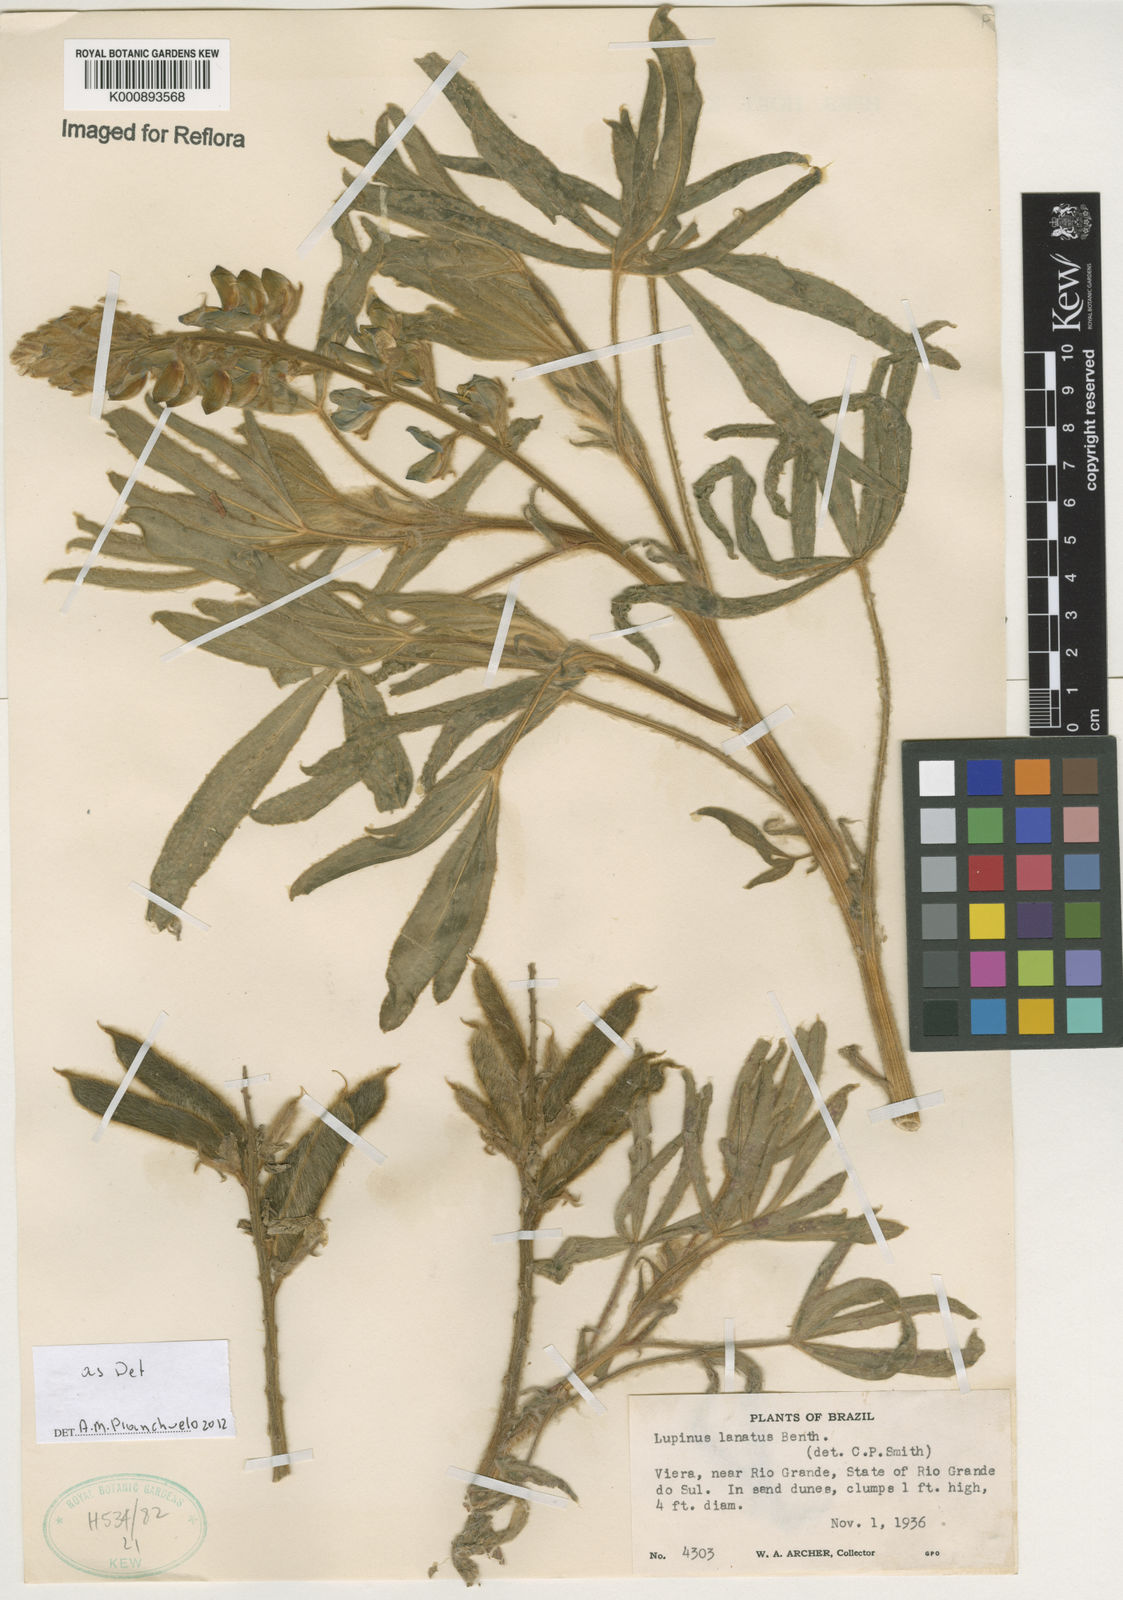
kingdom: Plantae
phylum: Tracheophyta
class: Magnoliopsida
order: Fabales
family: Fabaceae
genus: Lupinus
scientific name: Lupinus lanatus
